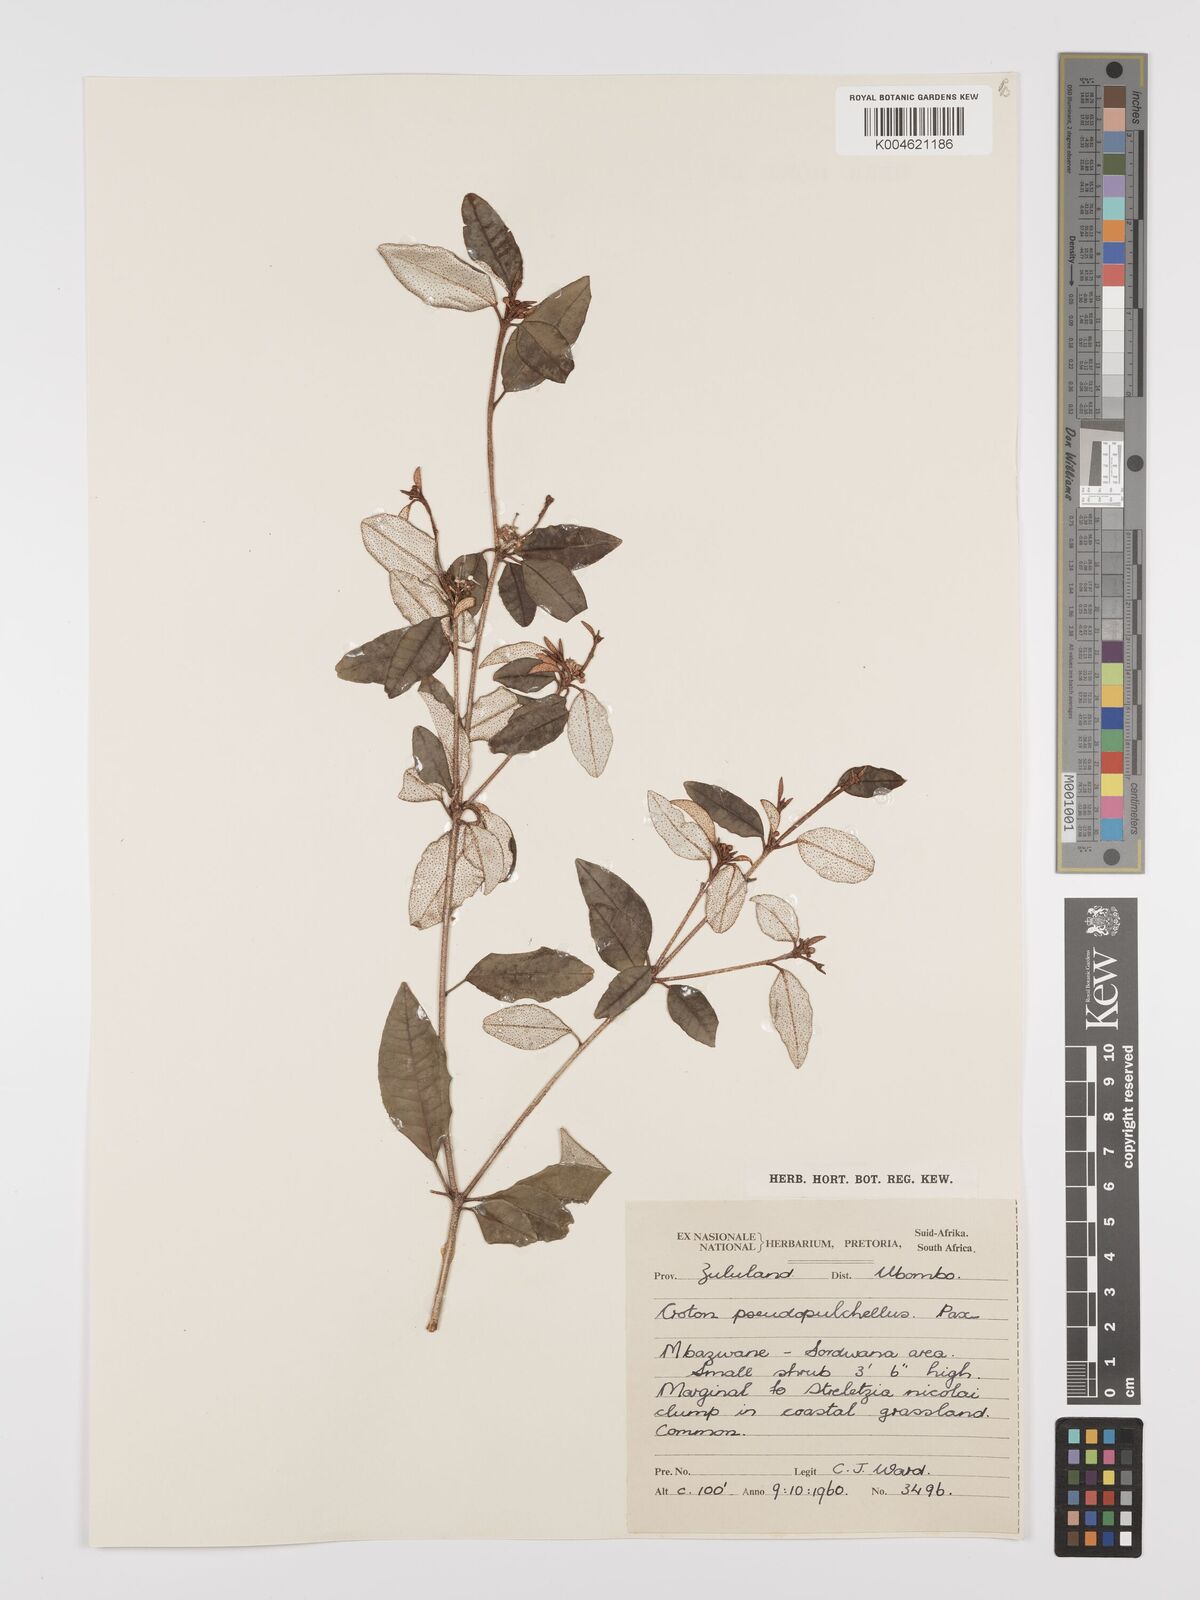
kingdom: Plantae
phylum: Tracheophyta
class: Magnoliopsida
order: Malpighiales
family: Euphorbiaceae
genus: Croton
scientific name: Croton pseudopulchellus
